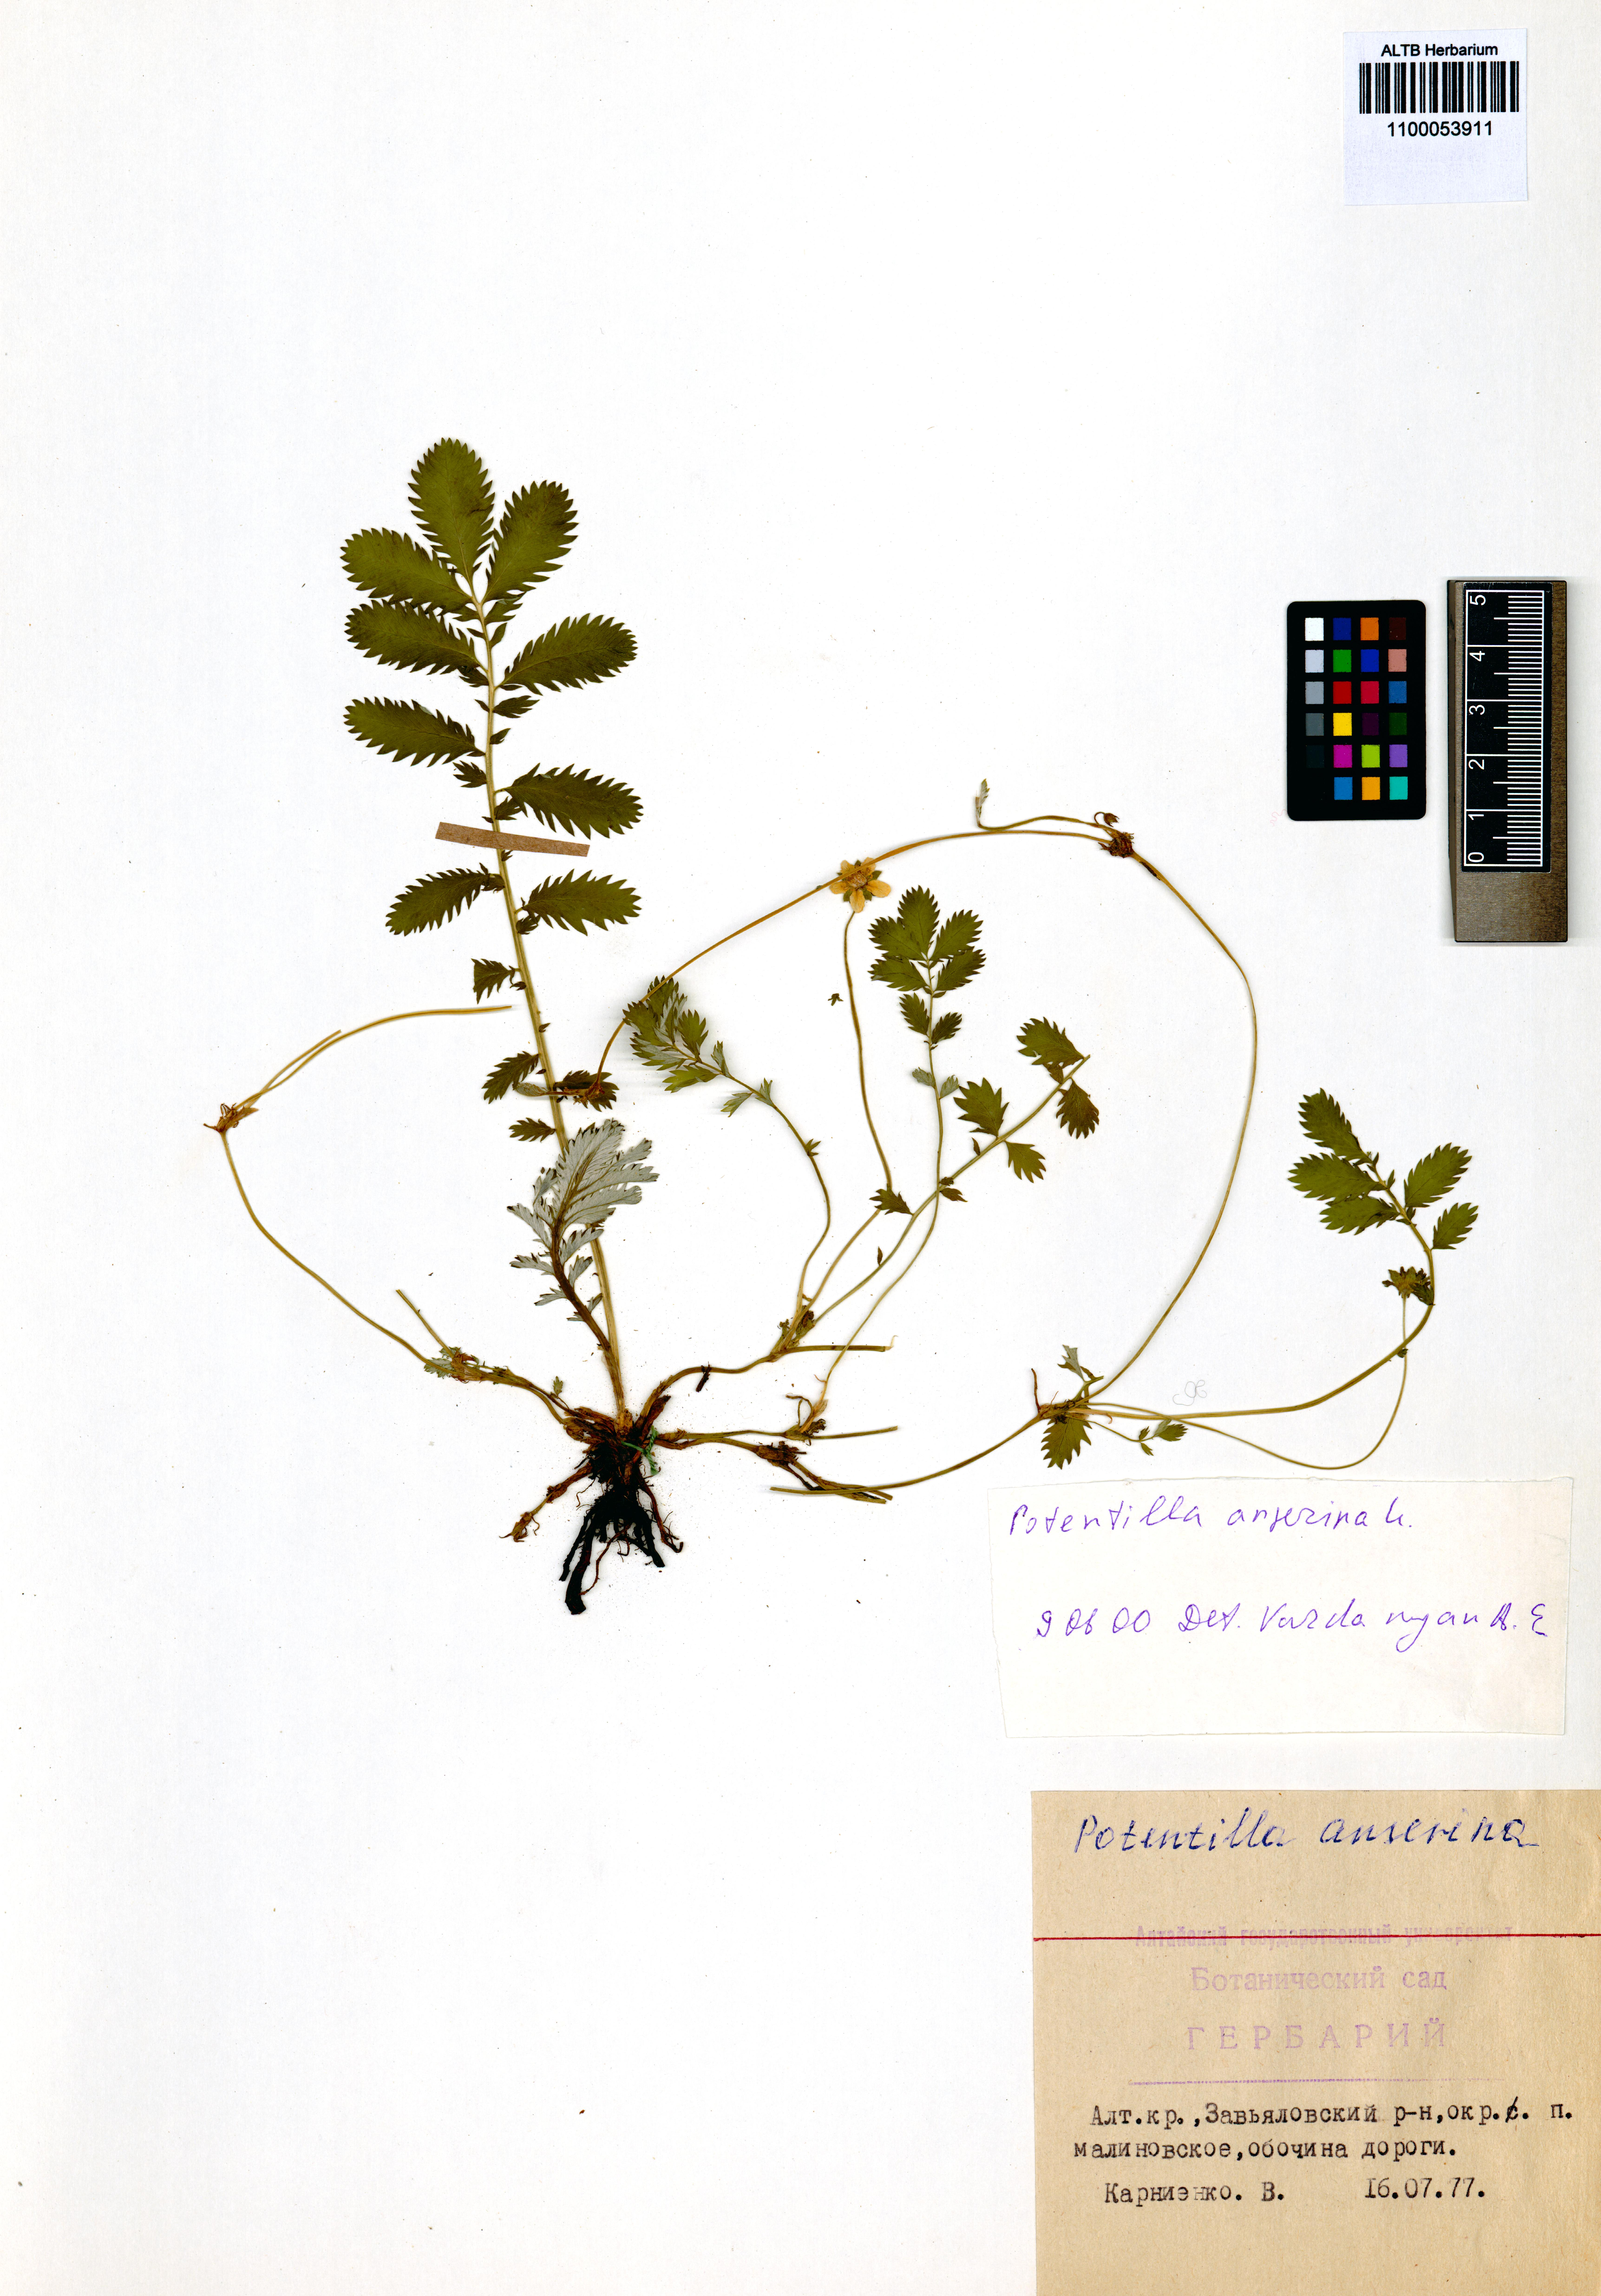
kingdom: Plantae
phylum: Tracheophyta
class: Magnoliopsida
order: Rosales
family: Rosaceae
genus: Argentina
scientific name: Argentina anserina
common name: Common silverweed
